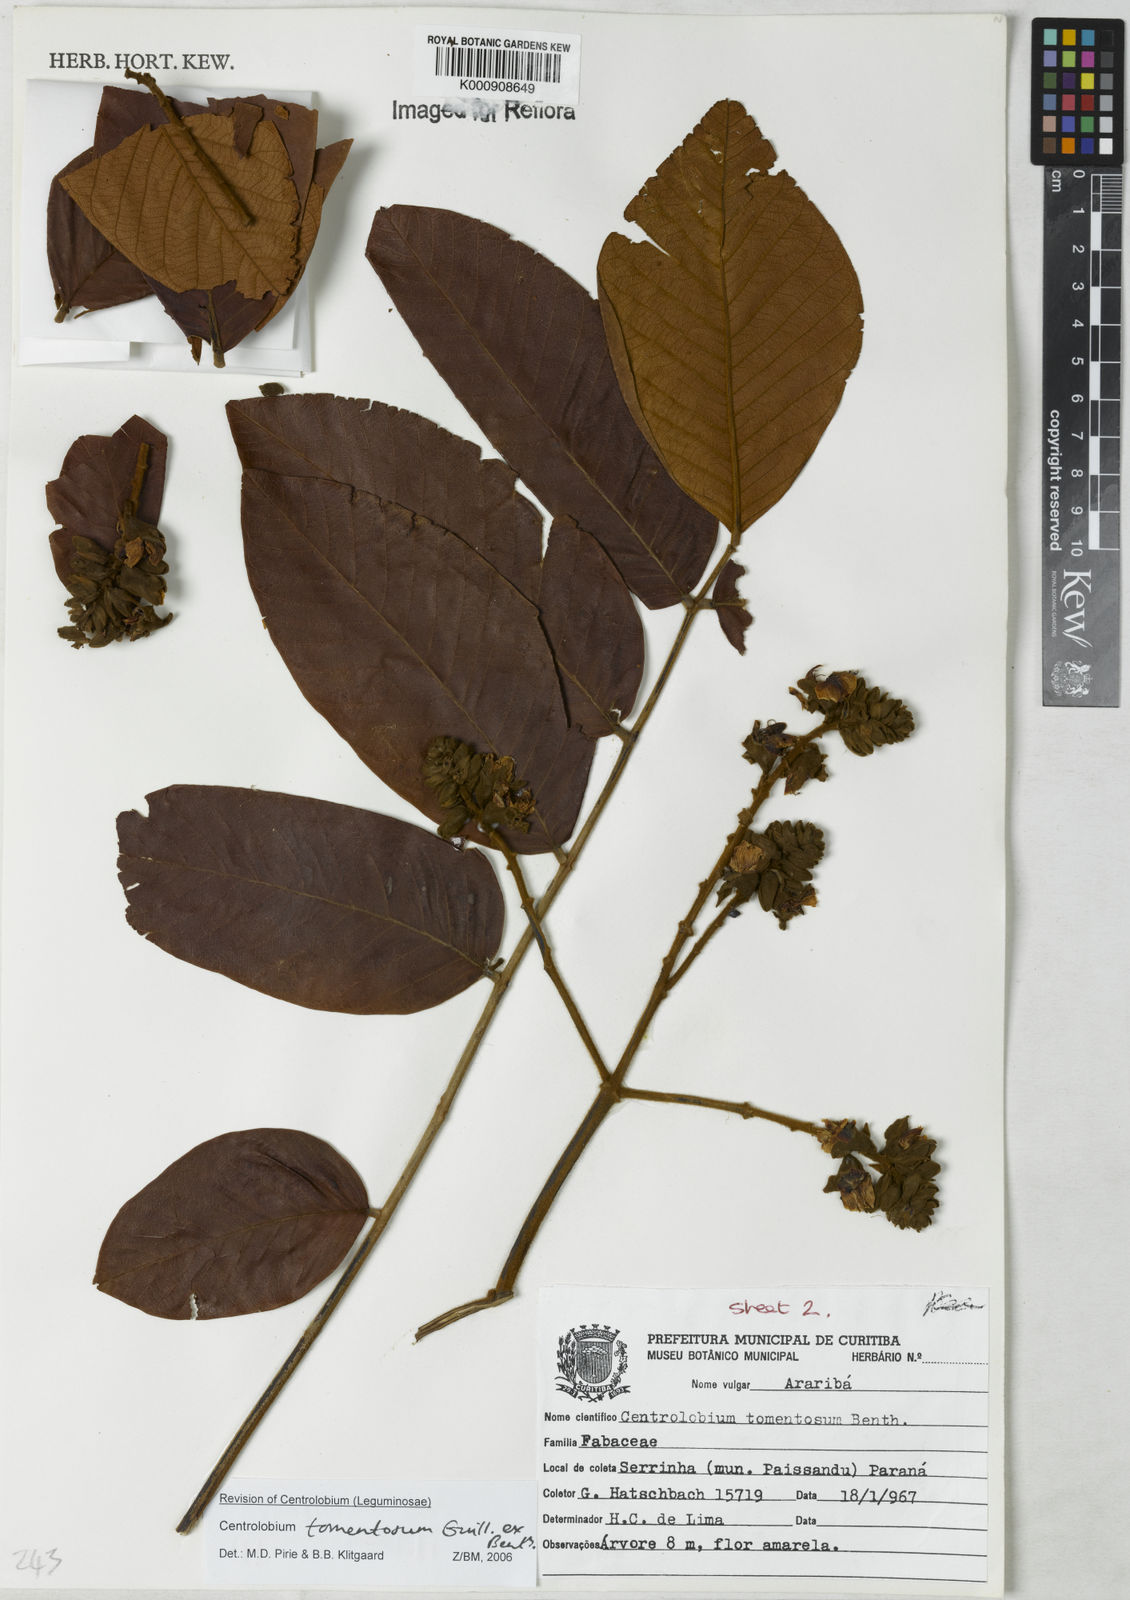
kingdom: Plantae
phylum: Tracheophyta
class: Magnoliopsida
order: Fabales
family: Fabaceae
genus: Centrolobium
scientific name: Centrolobium tomentosum
